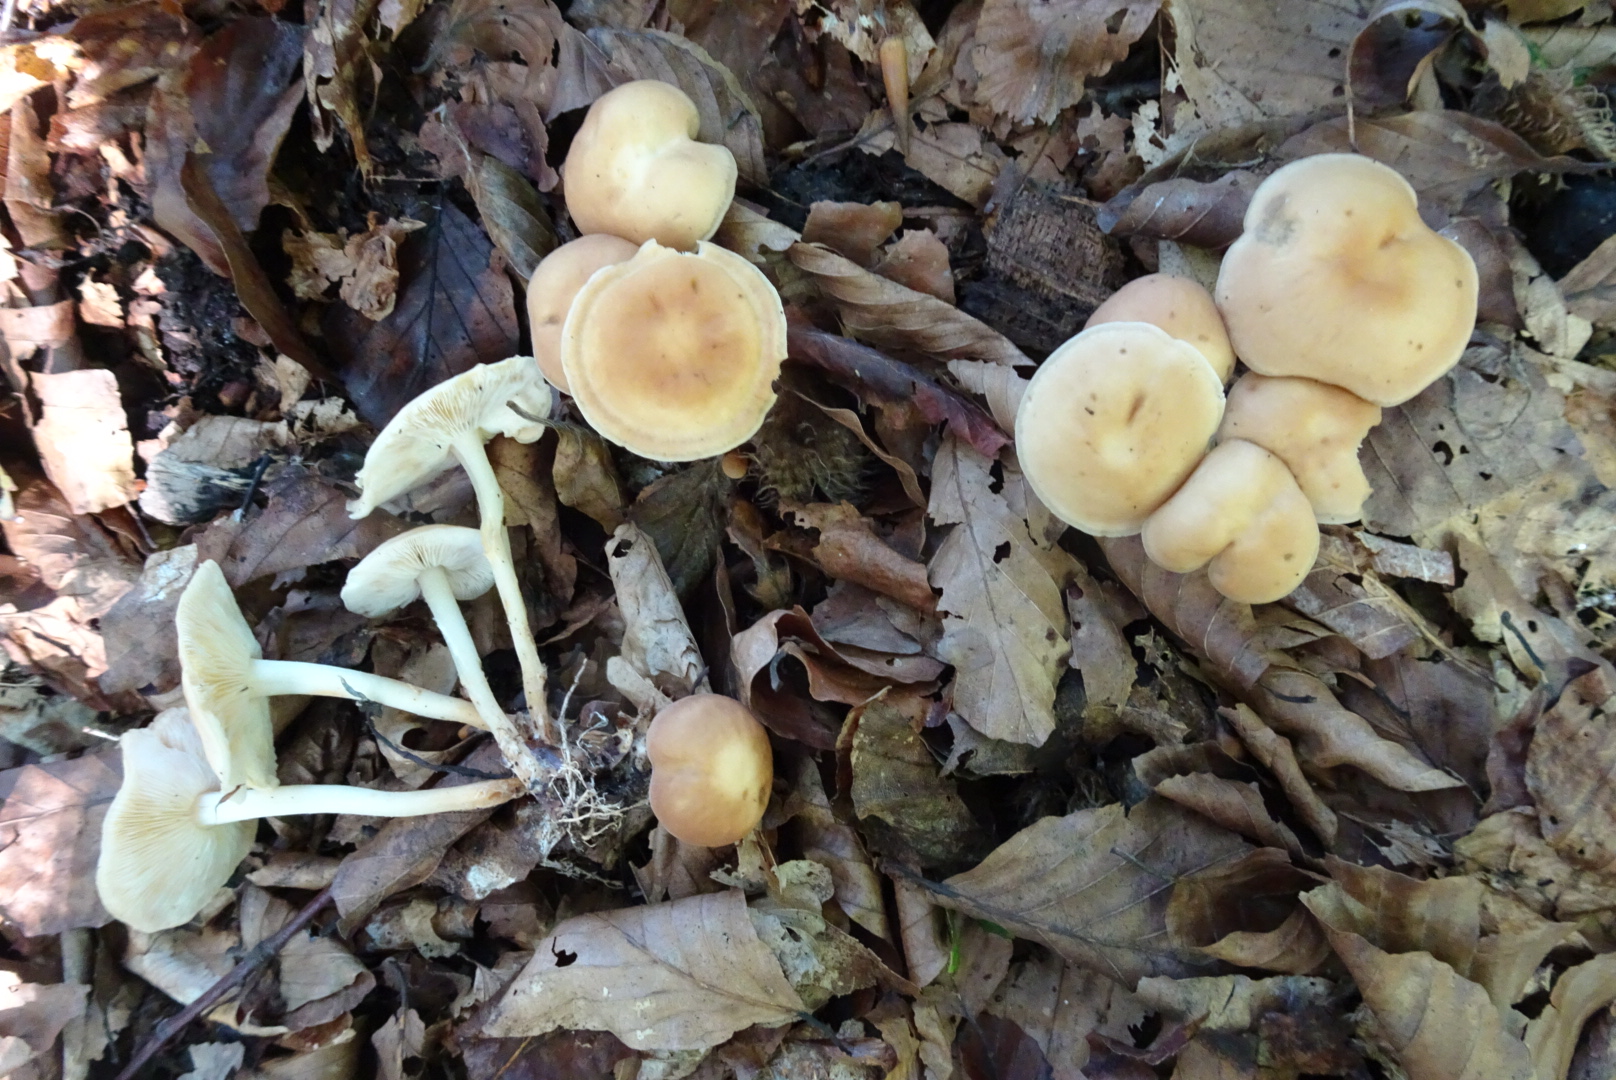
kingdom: Fungi
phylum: Basidiomycota
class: Agaricomycetes
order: Agaricales
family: Omphalotaceae
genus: Collybiopsis
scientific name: Collybiopsis confluens
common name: knippe-fladhat
